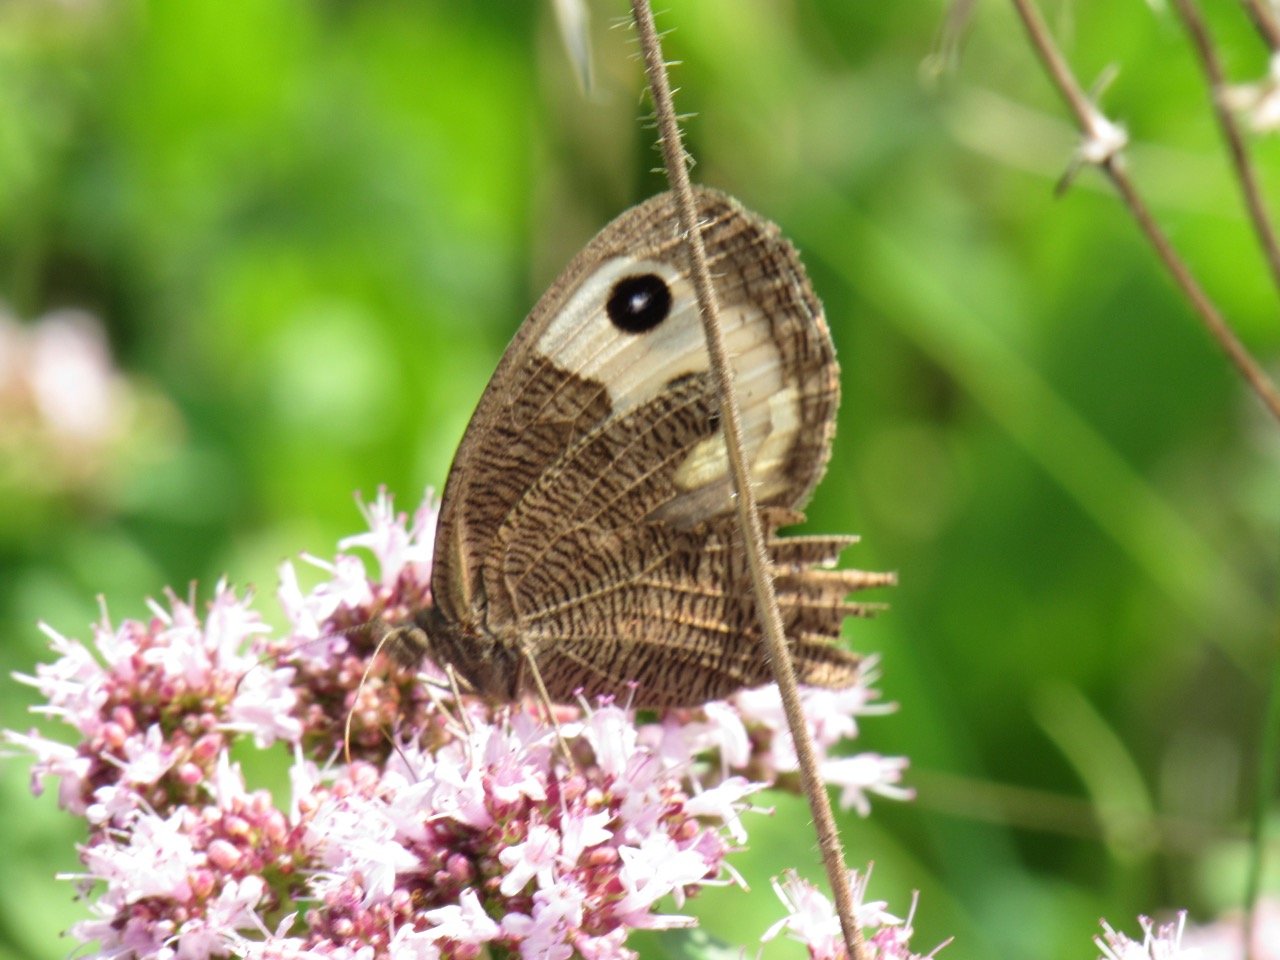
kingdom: Animalia
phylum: Arthropoda
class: Insecta
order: Lepidoptera
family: Nymphalidae
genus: Cercyonis
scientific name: Cercyonis pegala
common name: Common Wood-Nymph
